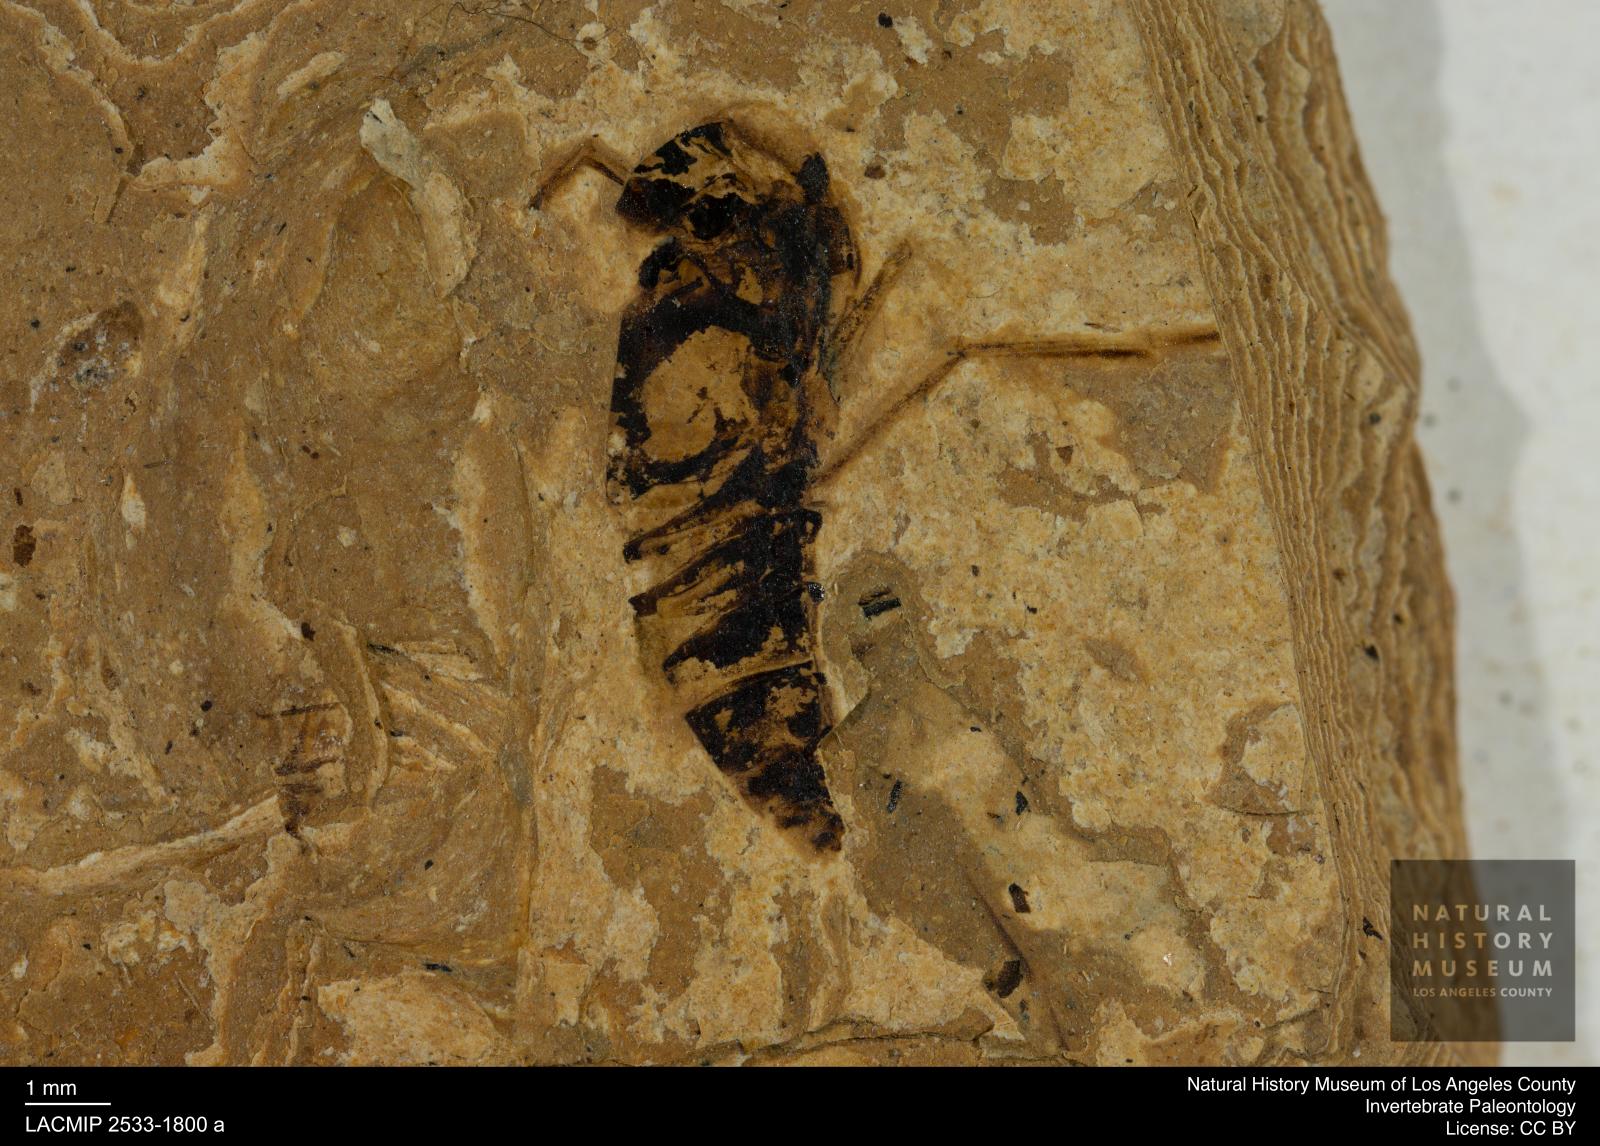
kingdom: Animalia
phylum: Arthropoda
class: Insecta
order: Hemiptera
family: Notonectidae
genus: Anisops
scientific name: Anisops Notonecta deichmuelleri
